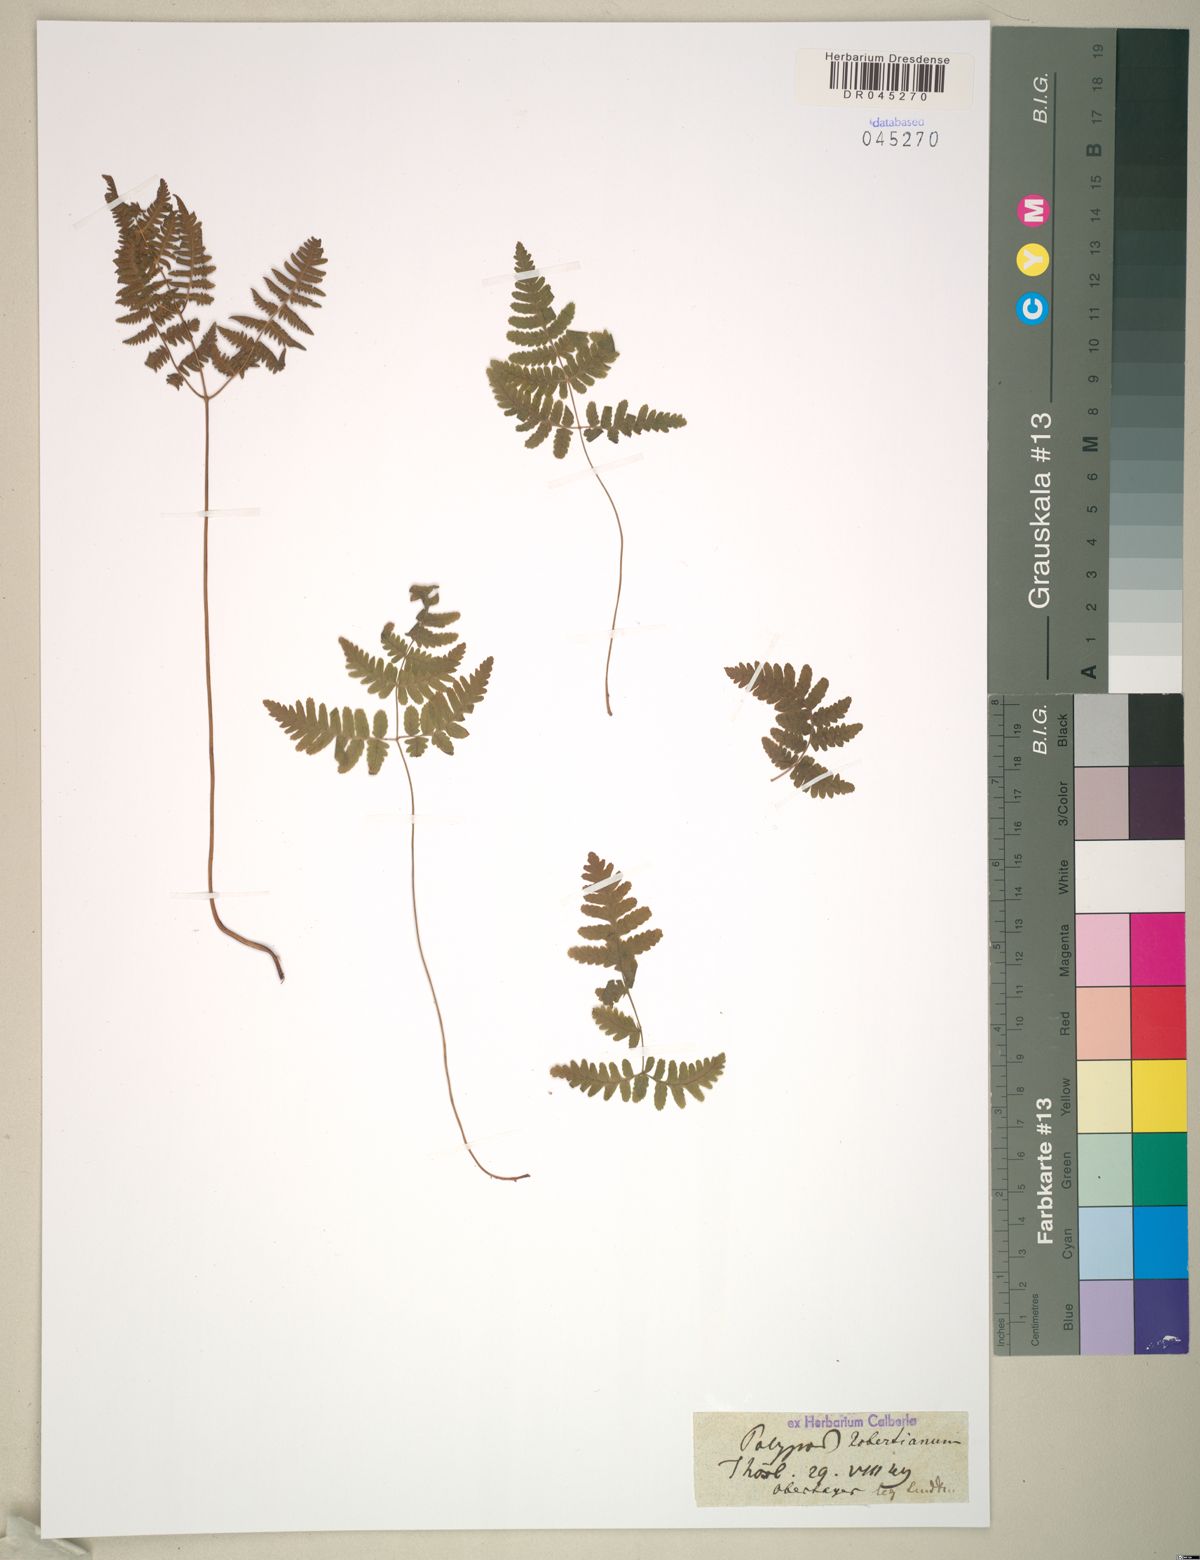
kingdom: Plantae
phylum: Tracheophyta
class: Polypodiopsida
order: Polypodiales
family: Cystopteridaceae
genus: Gymnocarpium
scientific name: Gymnocarpium robertianum
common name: Limestone fern
